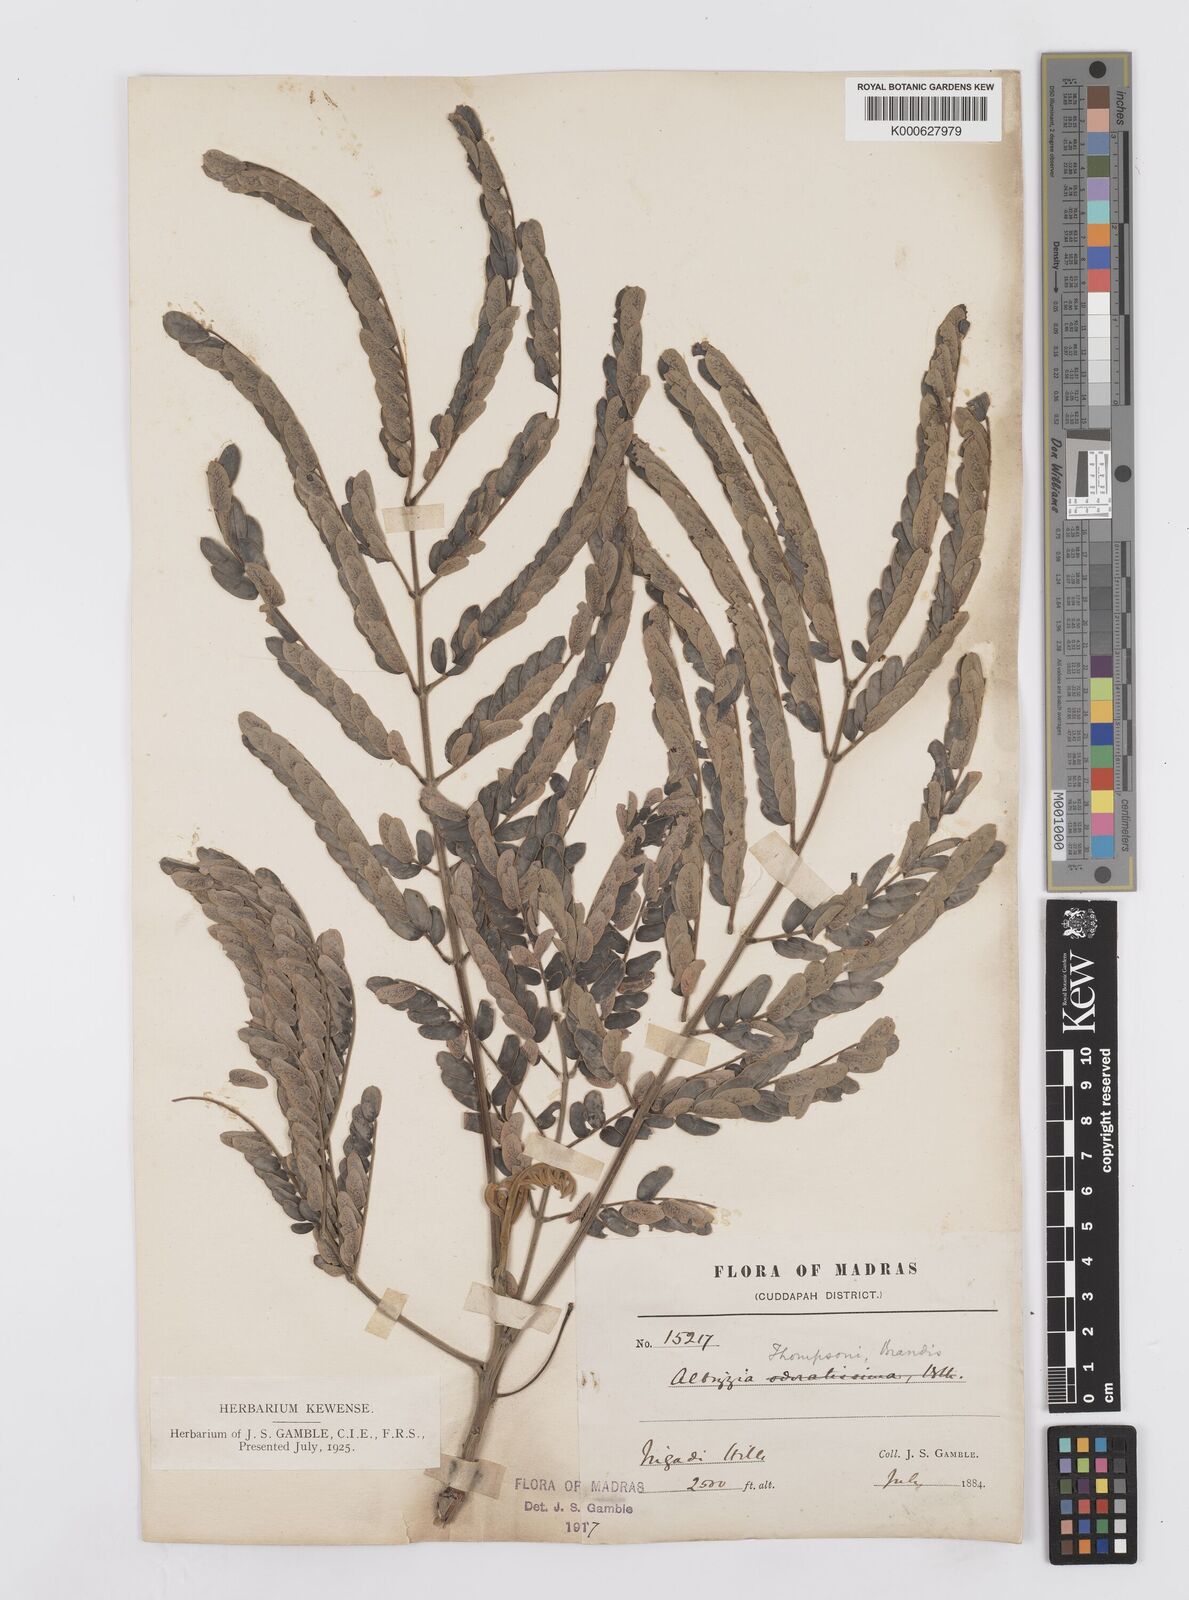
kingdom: Plantae
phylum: Tracheophyta
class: Magnoliopsida
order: Fabales
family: Fabaceae
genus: Albizia
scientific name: Albizia thompsonii
